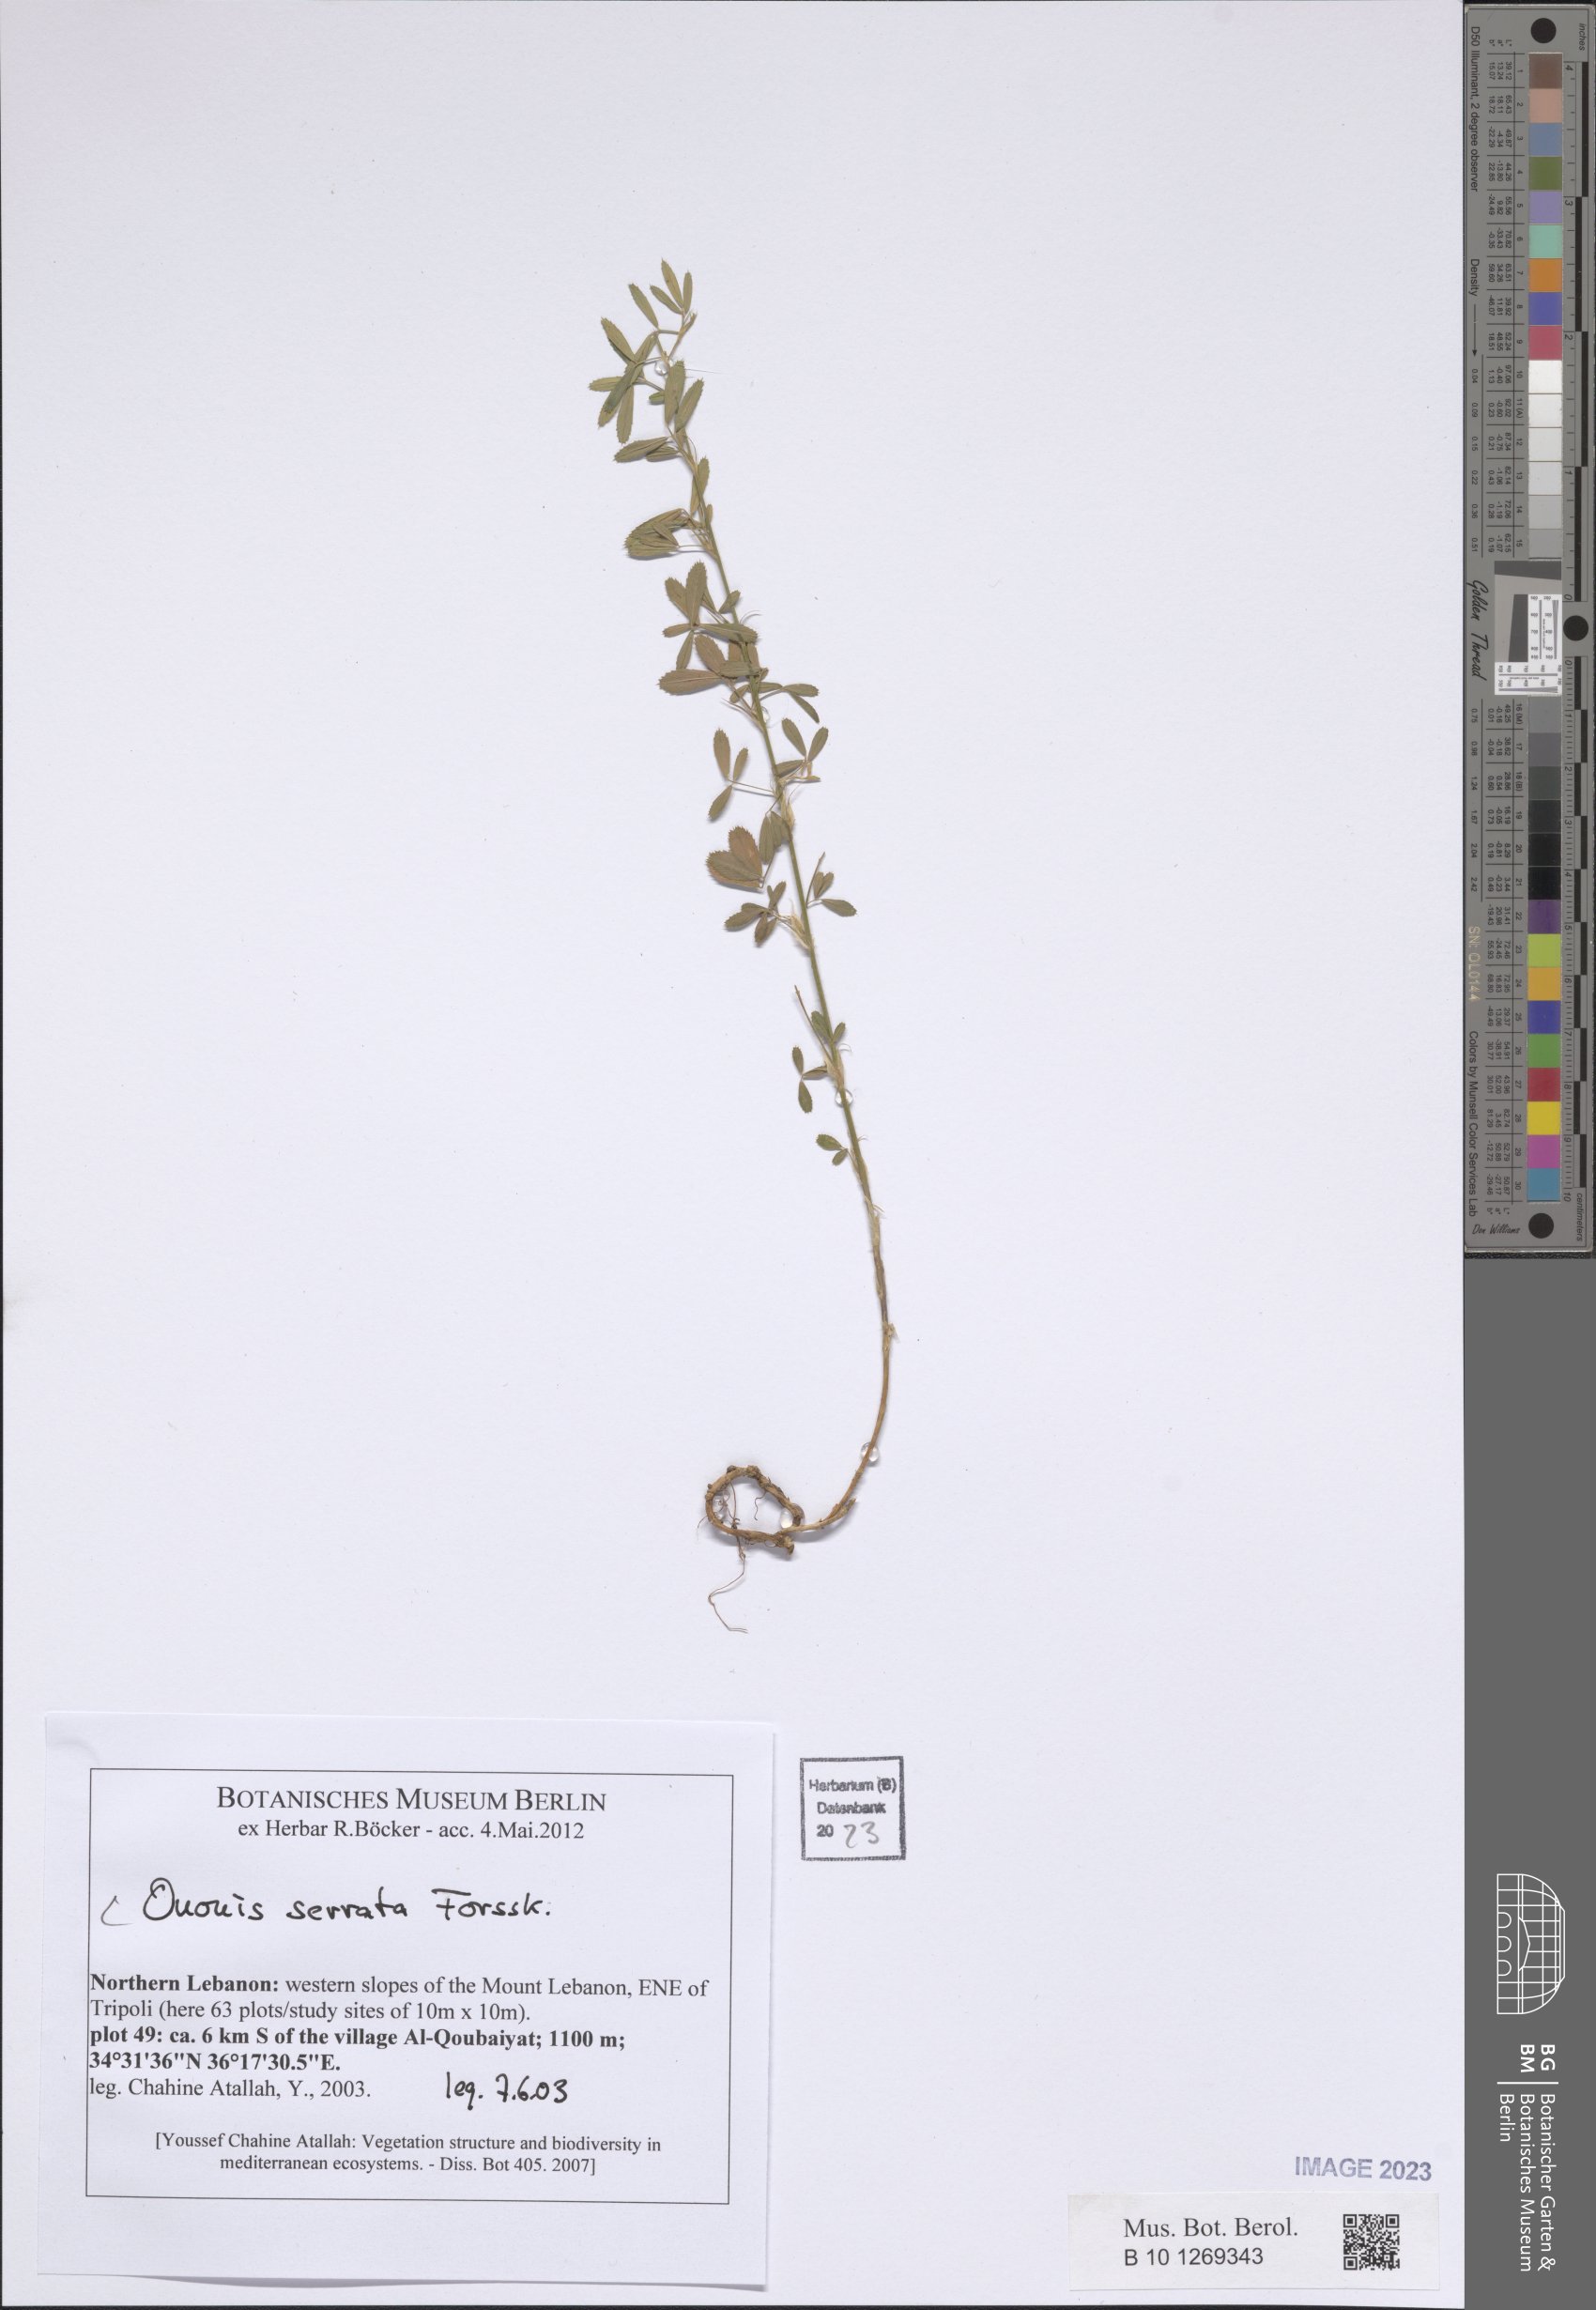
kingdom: Plantae
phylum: Tracheophyta
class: Magnoliopsida
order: Fabales
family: Fabaceae
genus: Ononis
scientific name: Ononis serrata
